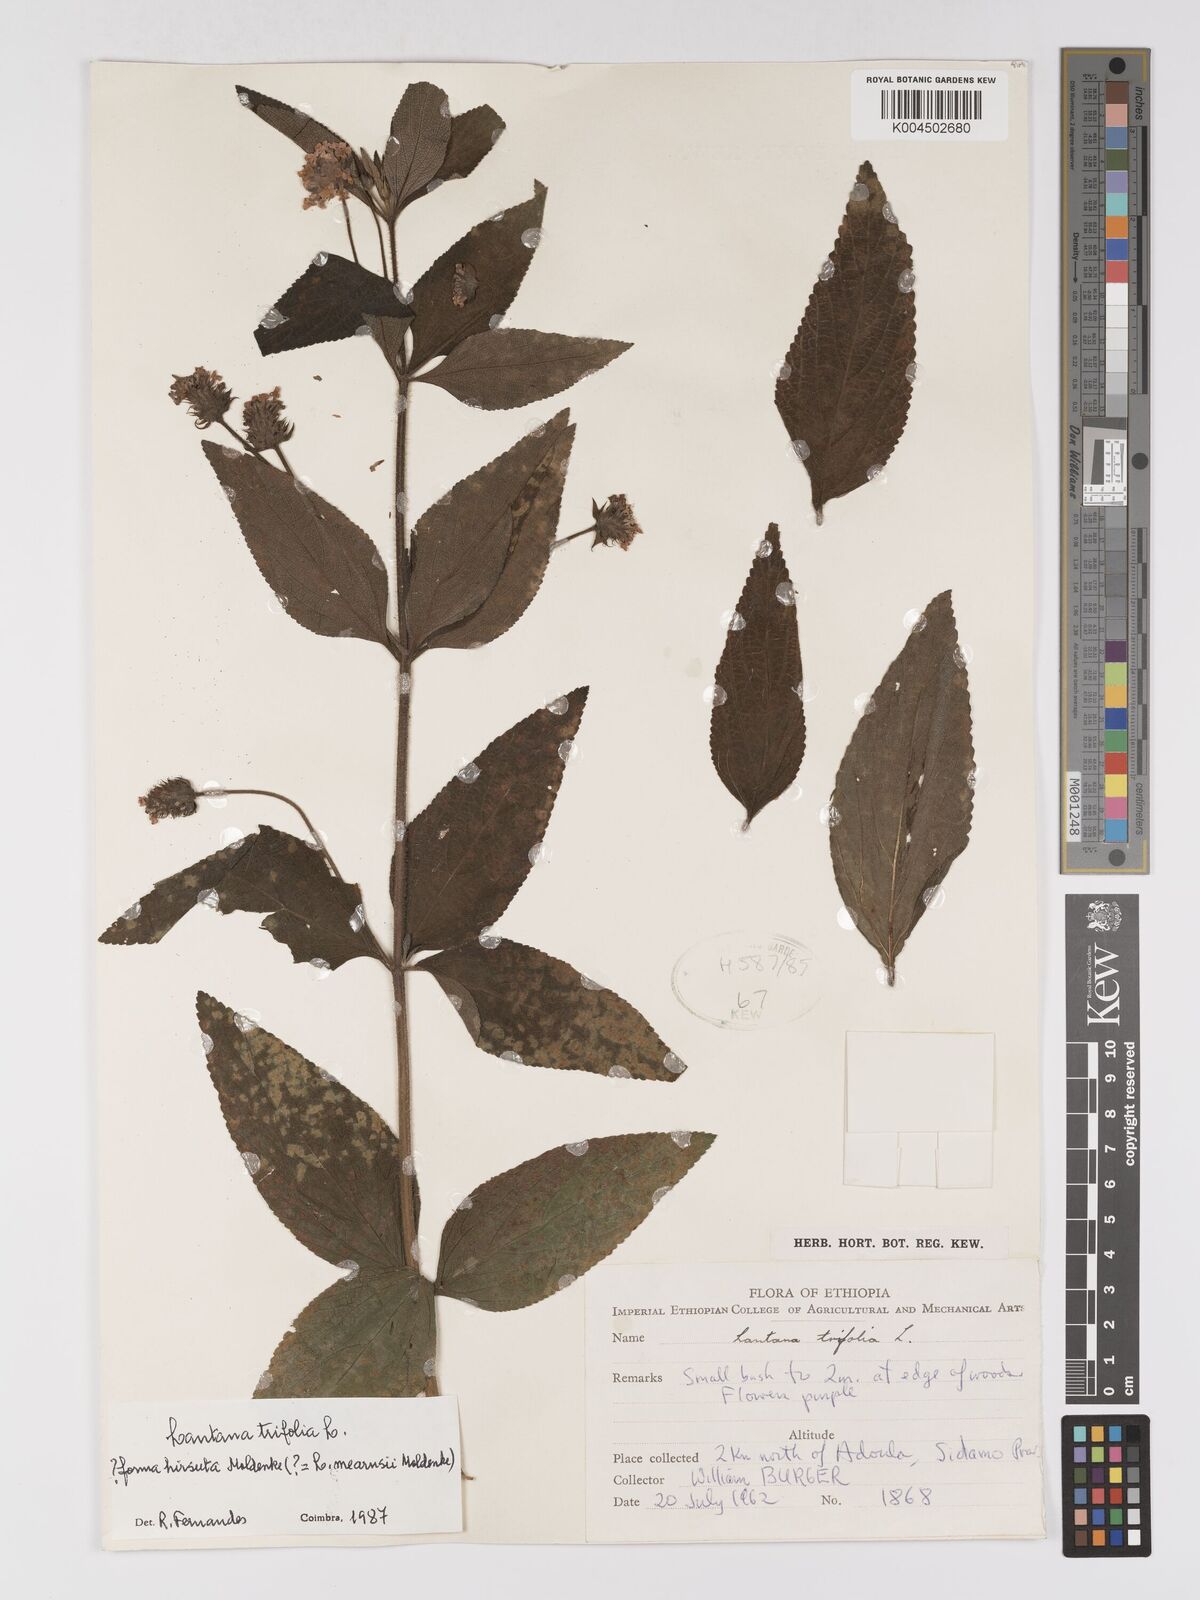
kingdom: Plantae
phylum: Tracheophyta
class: Magnoliopsida
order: Lamiales
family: Verbenaceae
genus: Lantana
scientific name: Lantana trifolia
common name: Sweet-sage
